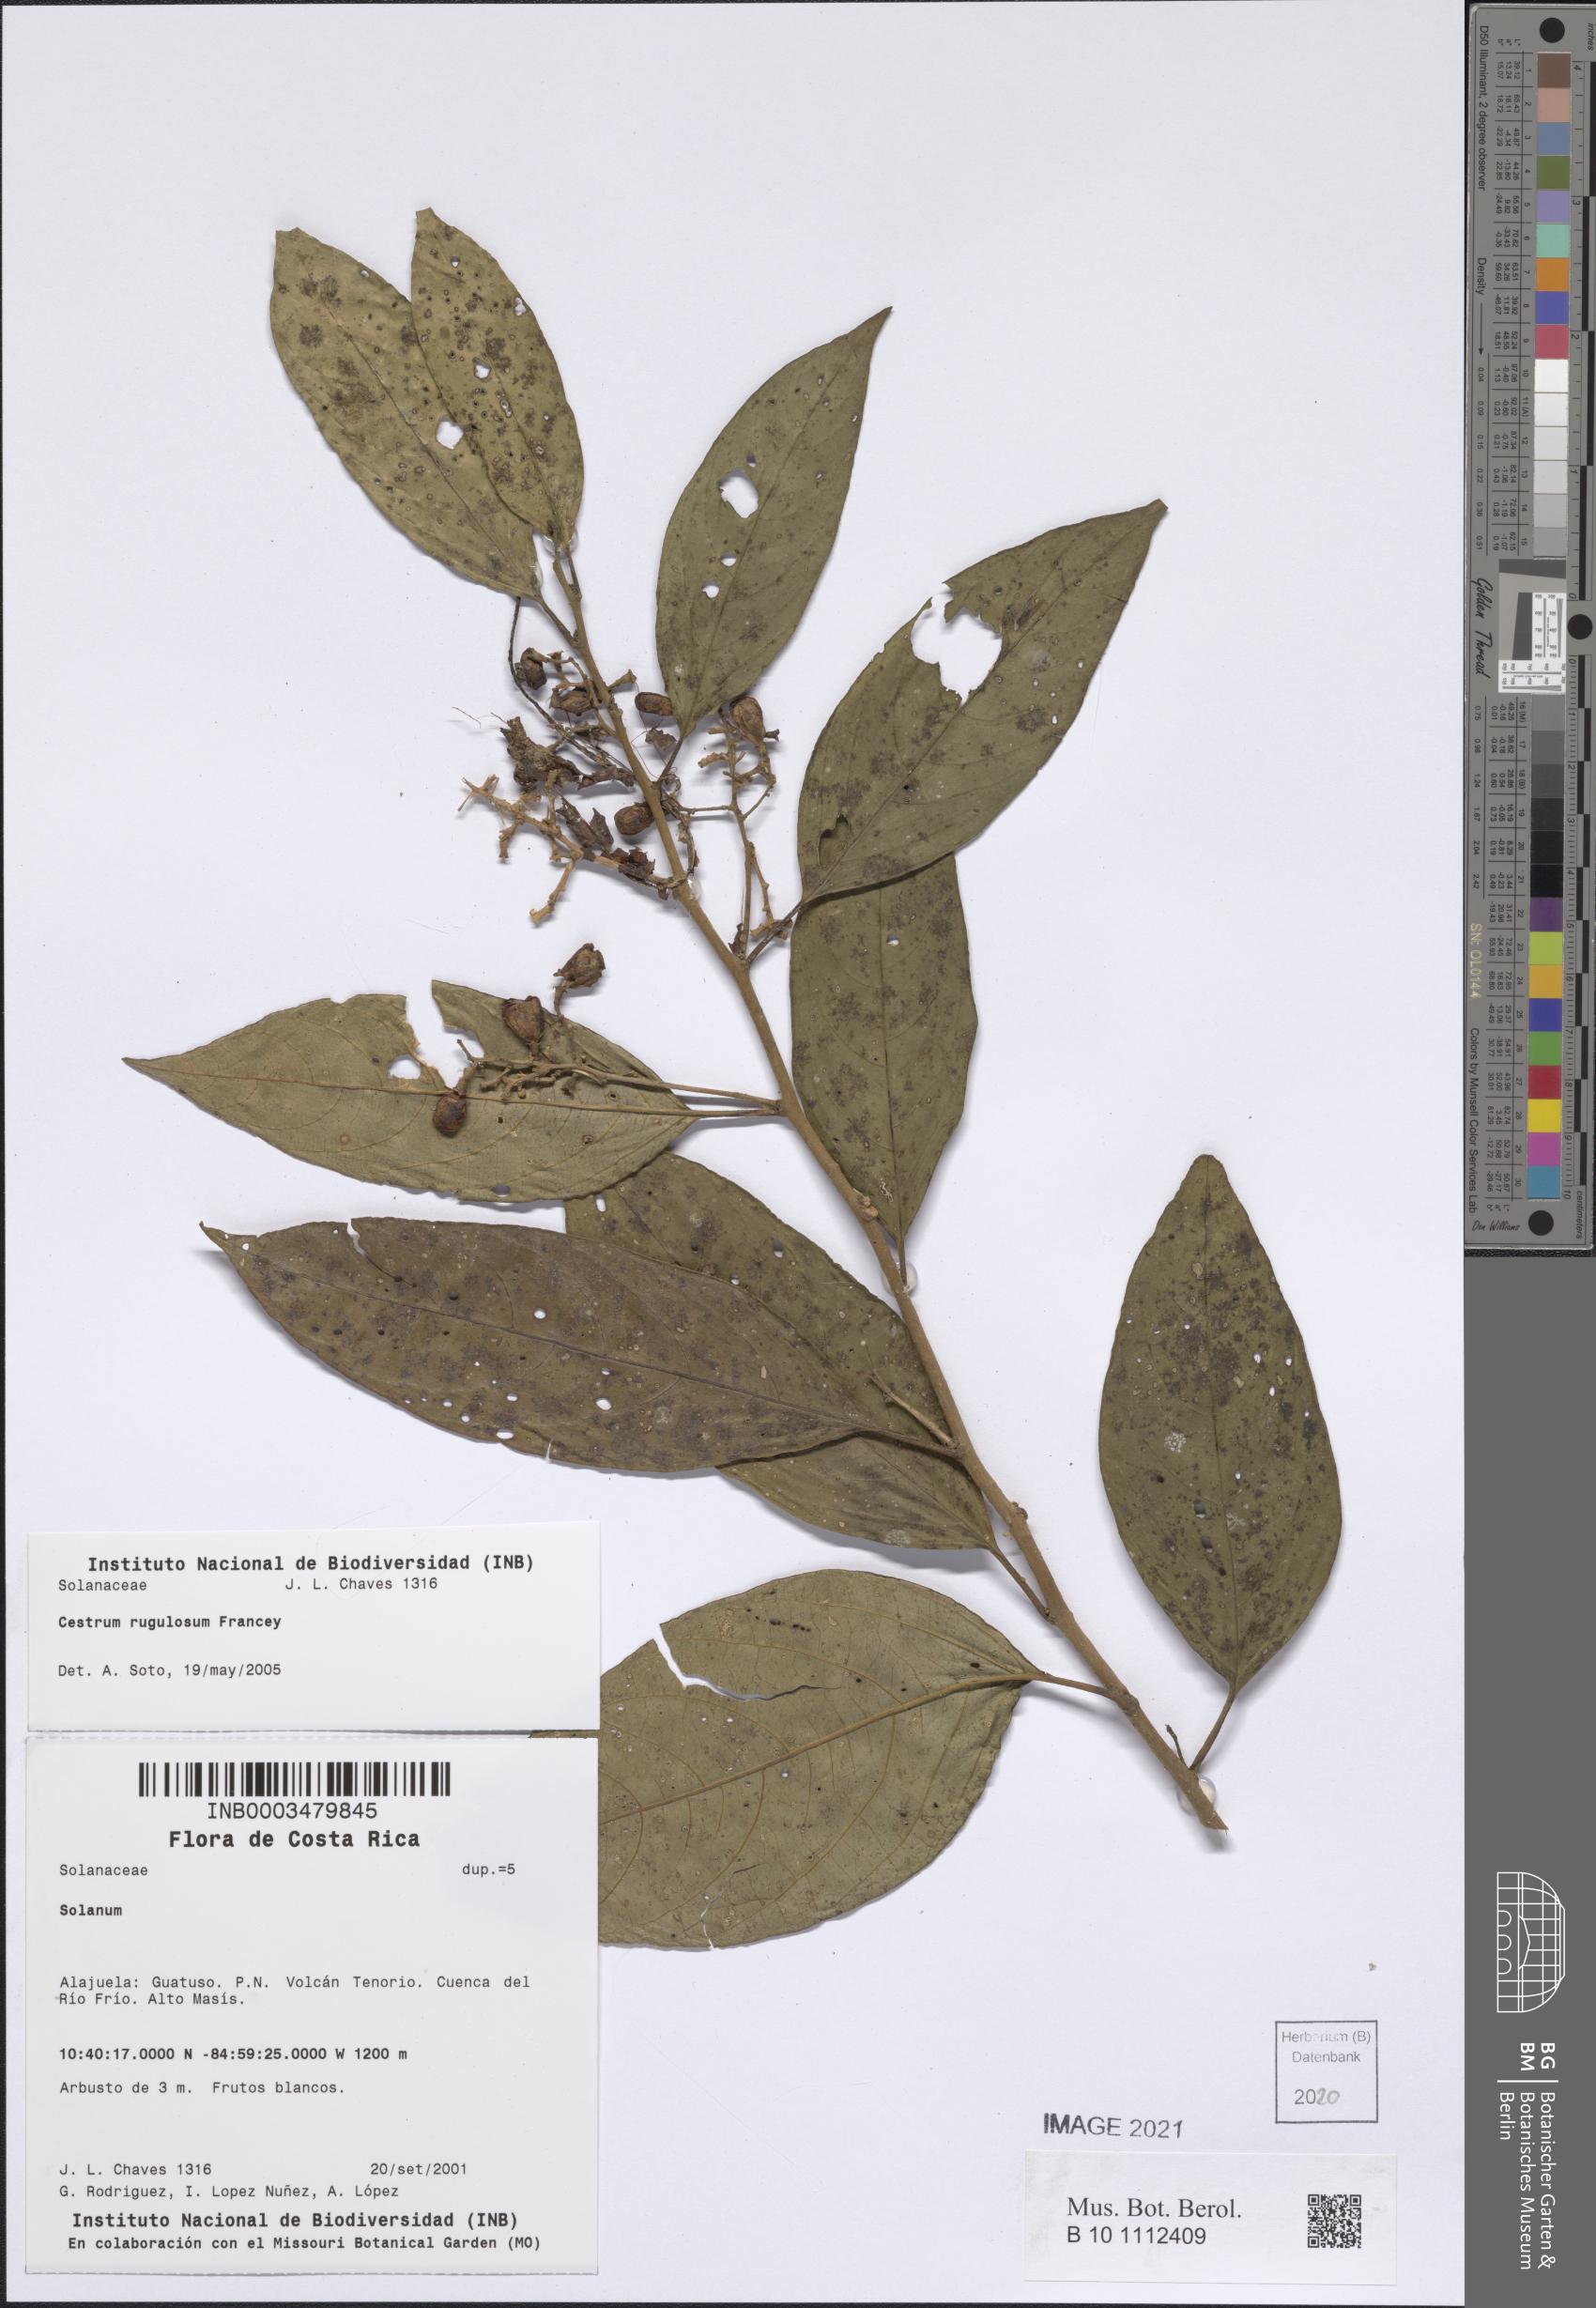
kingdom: Plantae
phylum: Tracheophyta
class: Magnoliopsida
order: Solanales
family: Solanaceae
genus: Cestrum
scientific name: Cestrum
